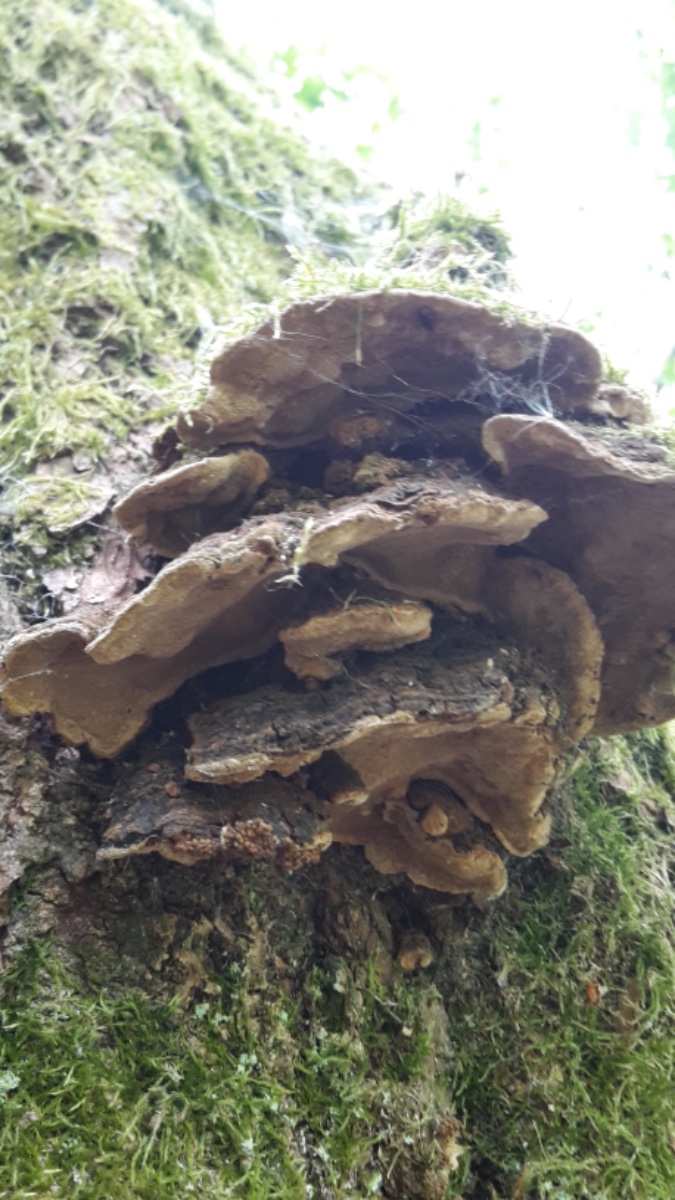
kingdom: Fungi
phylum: Basidiomycota
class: Agaricomycetes
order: Hymenochaetales
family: Hymenochaetaceae
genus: Phellinopsis
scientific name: Phellinopsis conchata
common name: pile-ildporesvamp
